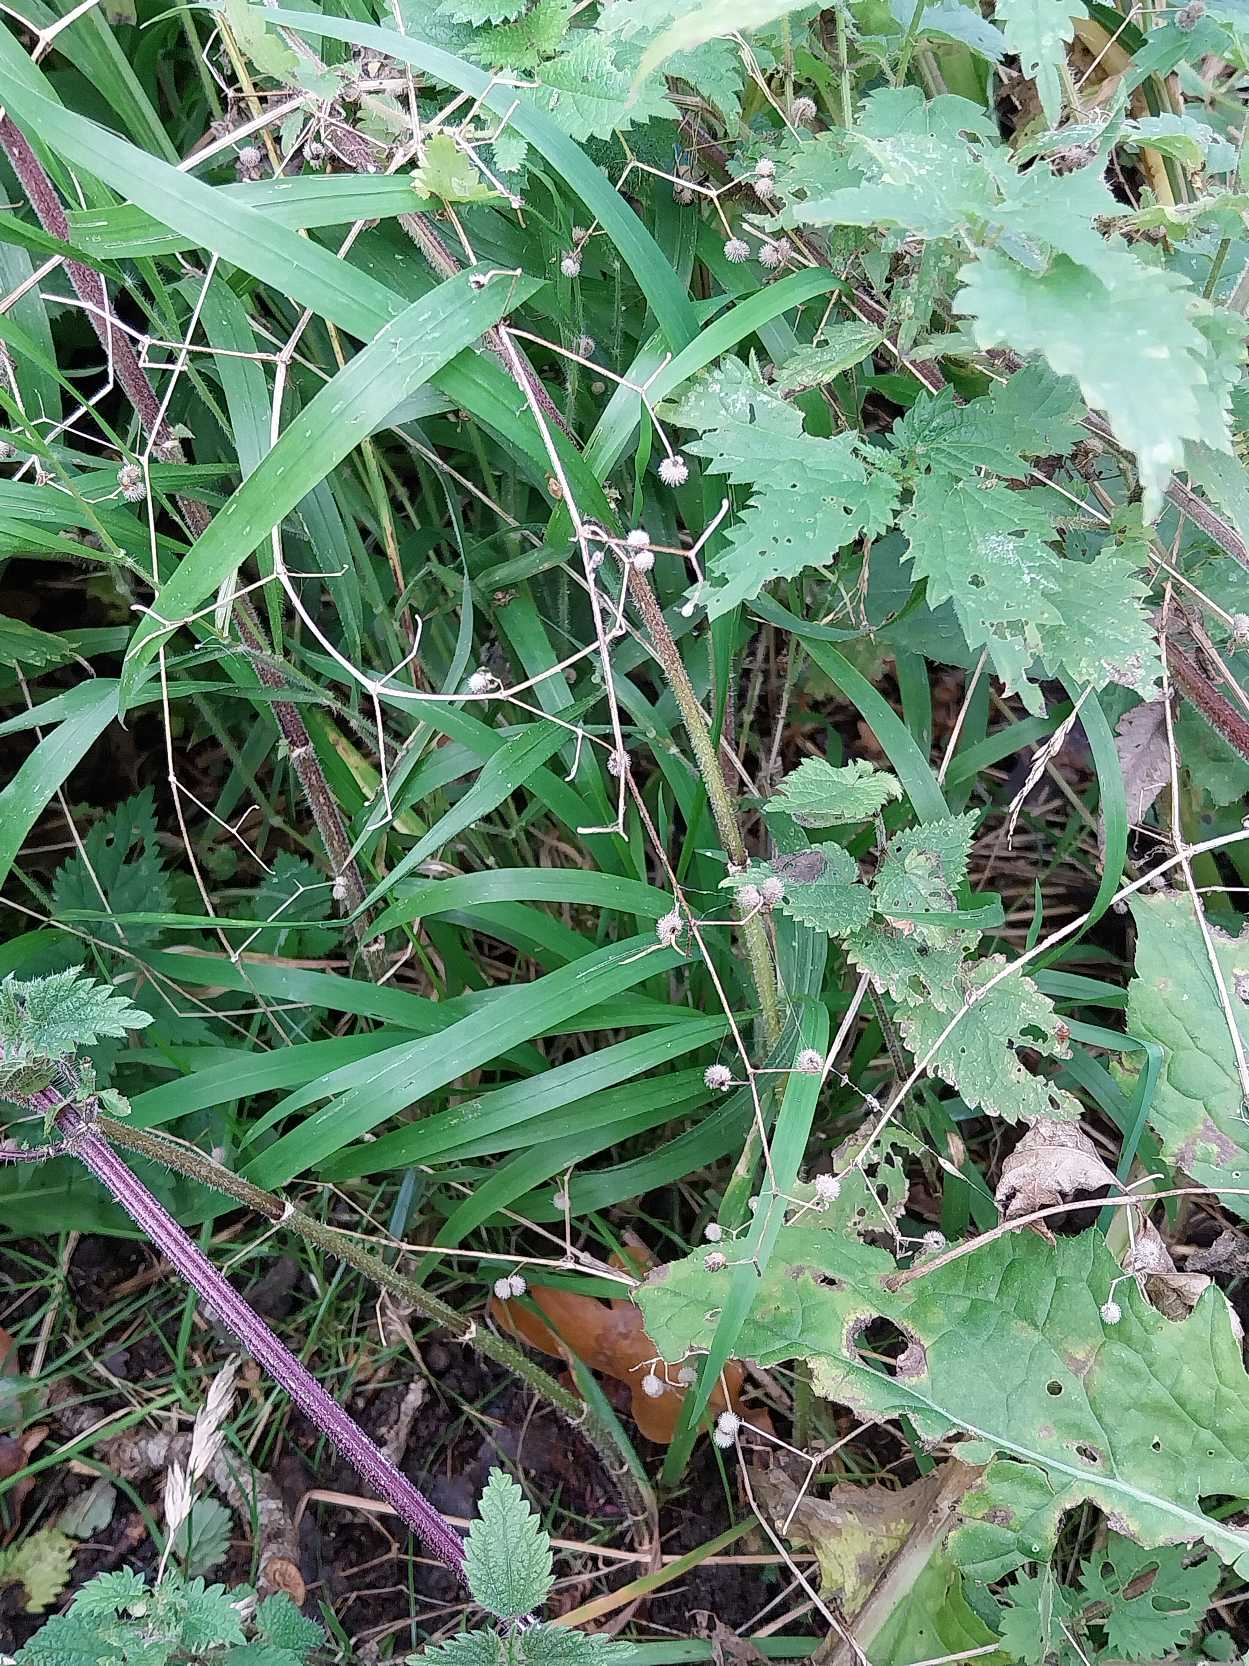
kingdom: Plantae
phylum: Tracheophyta
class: Magnoliopsida
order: Gentianales
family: Rubiaceae
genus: Galium
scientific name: Galium aparine
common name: Burre-snerre
